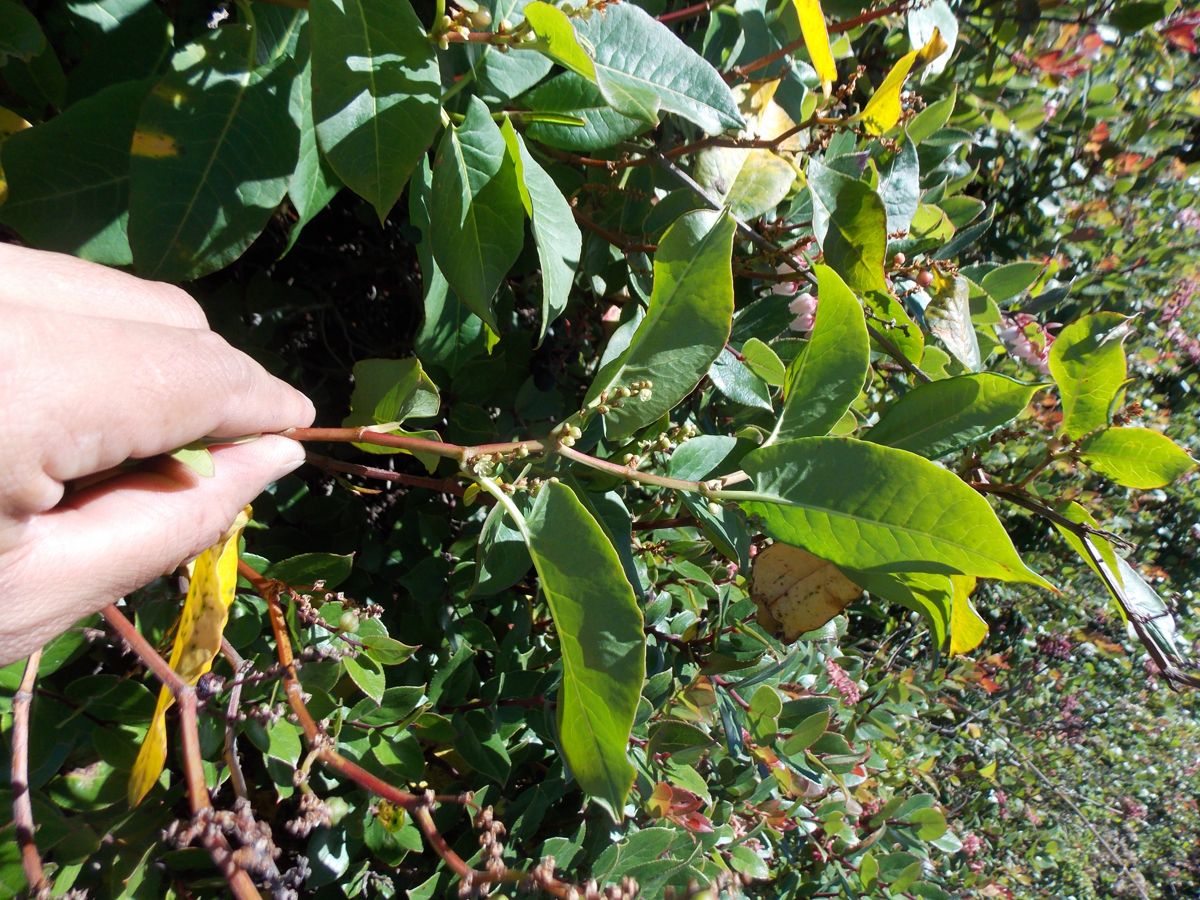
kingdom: Plantae
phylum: Tracheophyta
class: Magnoliopsida
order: Caryophyllales
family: Polygonaceae
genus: Muehlenbeckia
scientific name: Muehlenbeckia tamnifolia
